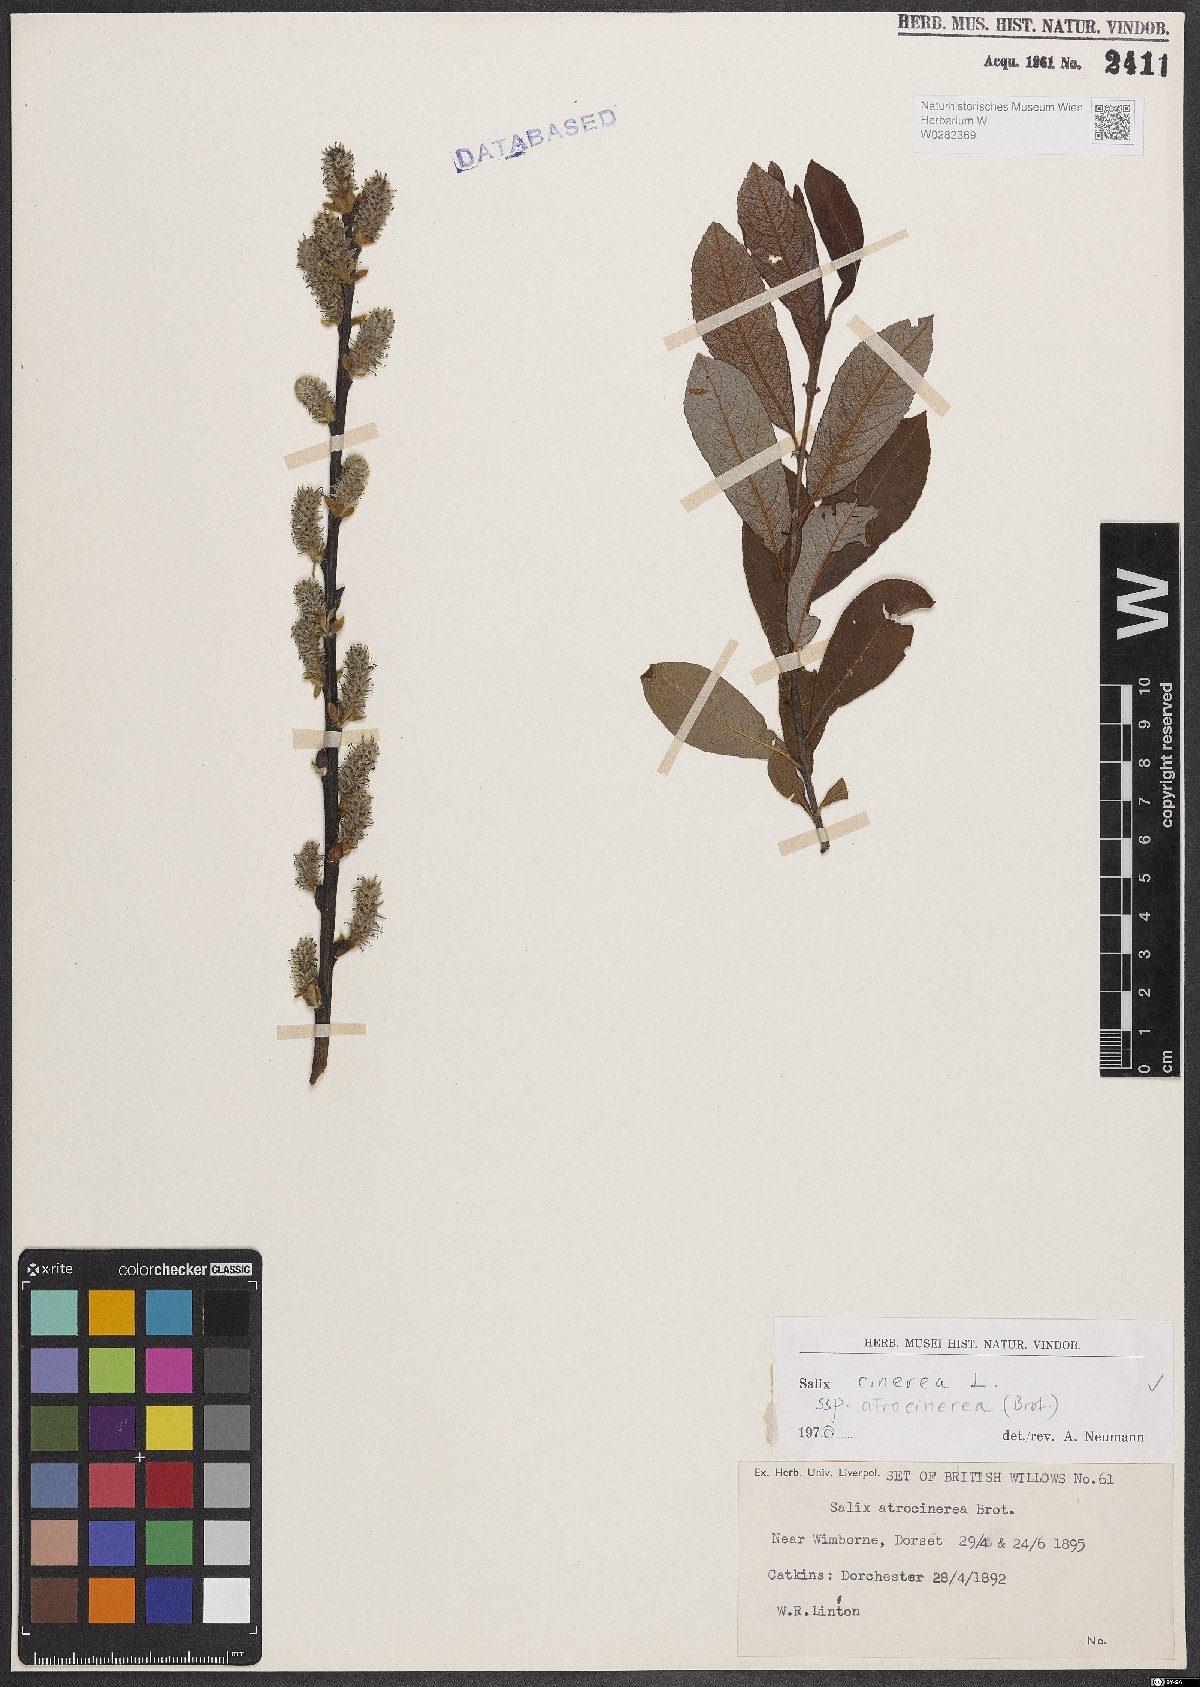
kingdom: Plantae
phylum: Tracheophyta
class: Magnoliopsida
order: Malpighiales
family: Salicaceae
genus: Salix
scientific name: Salix atrocinerea
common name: Rusty willow
